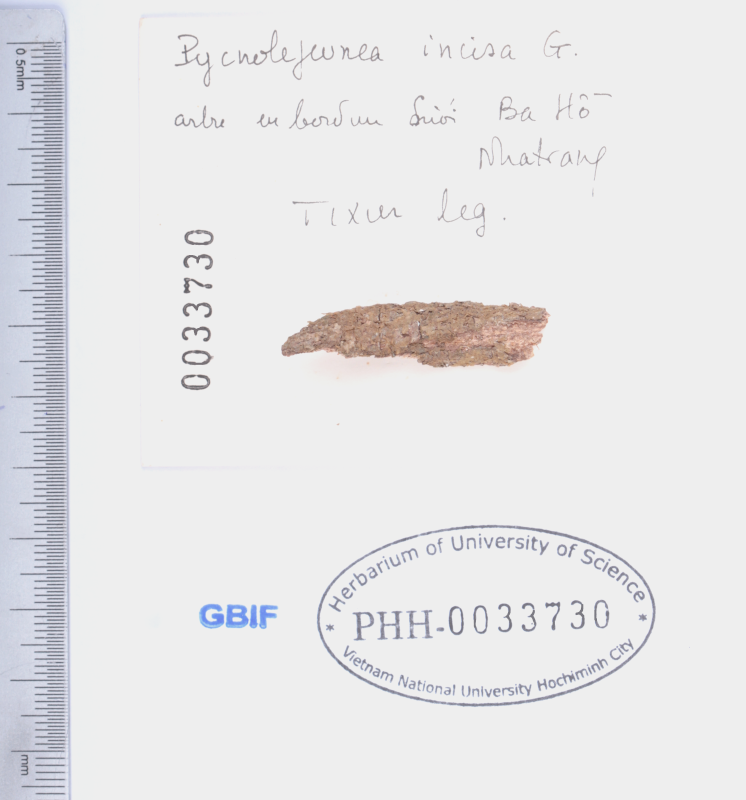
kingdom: Plantae
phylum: Marchantiophyta
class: Jungermanniopsida
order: Porellales
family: Lejeuneaceae
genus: Cheilolejeunea
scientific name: Cheilolejeunea incisa
